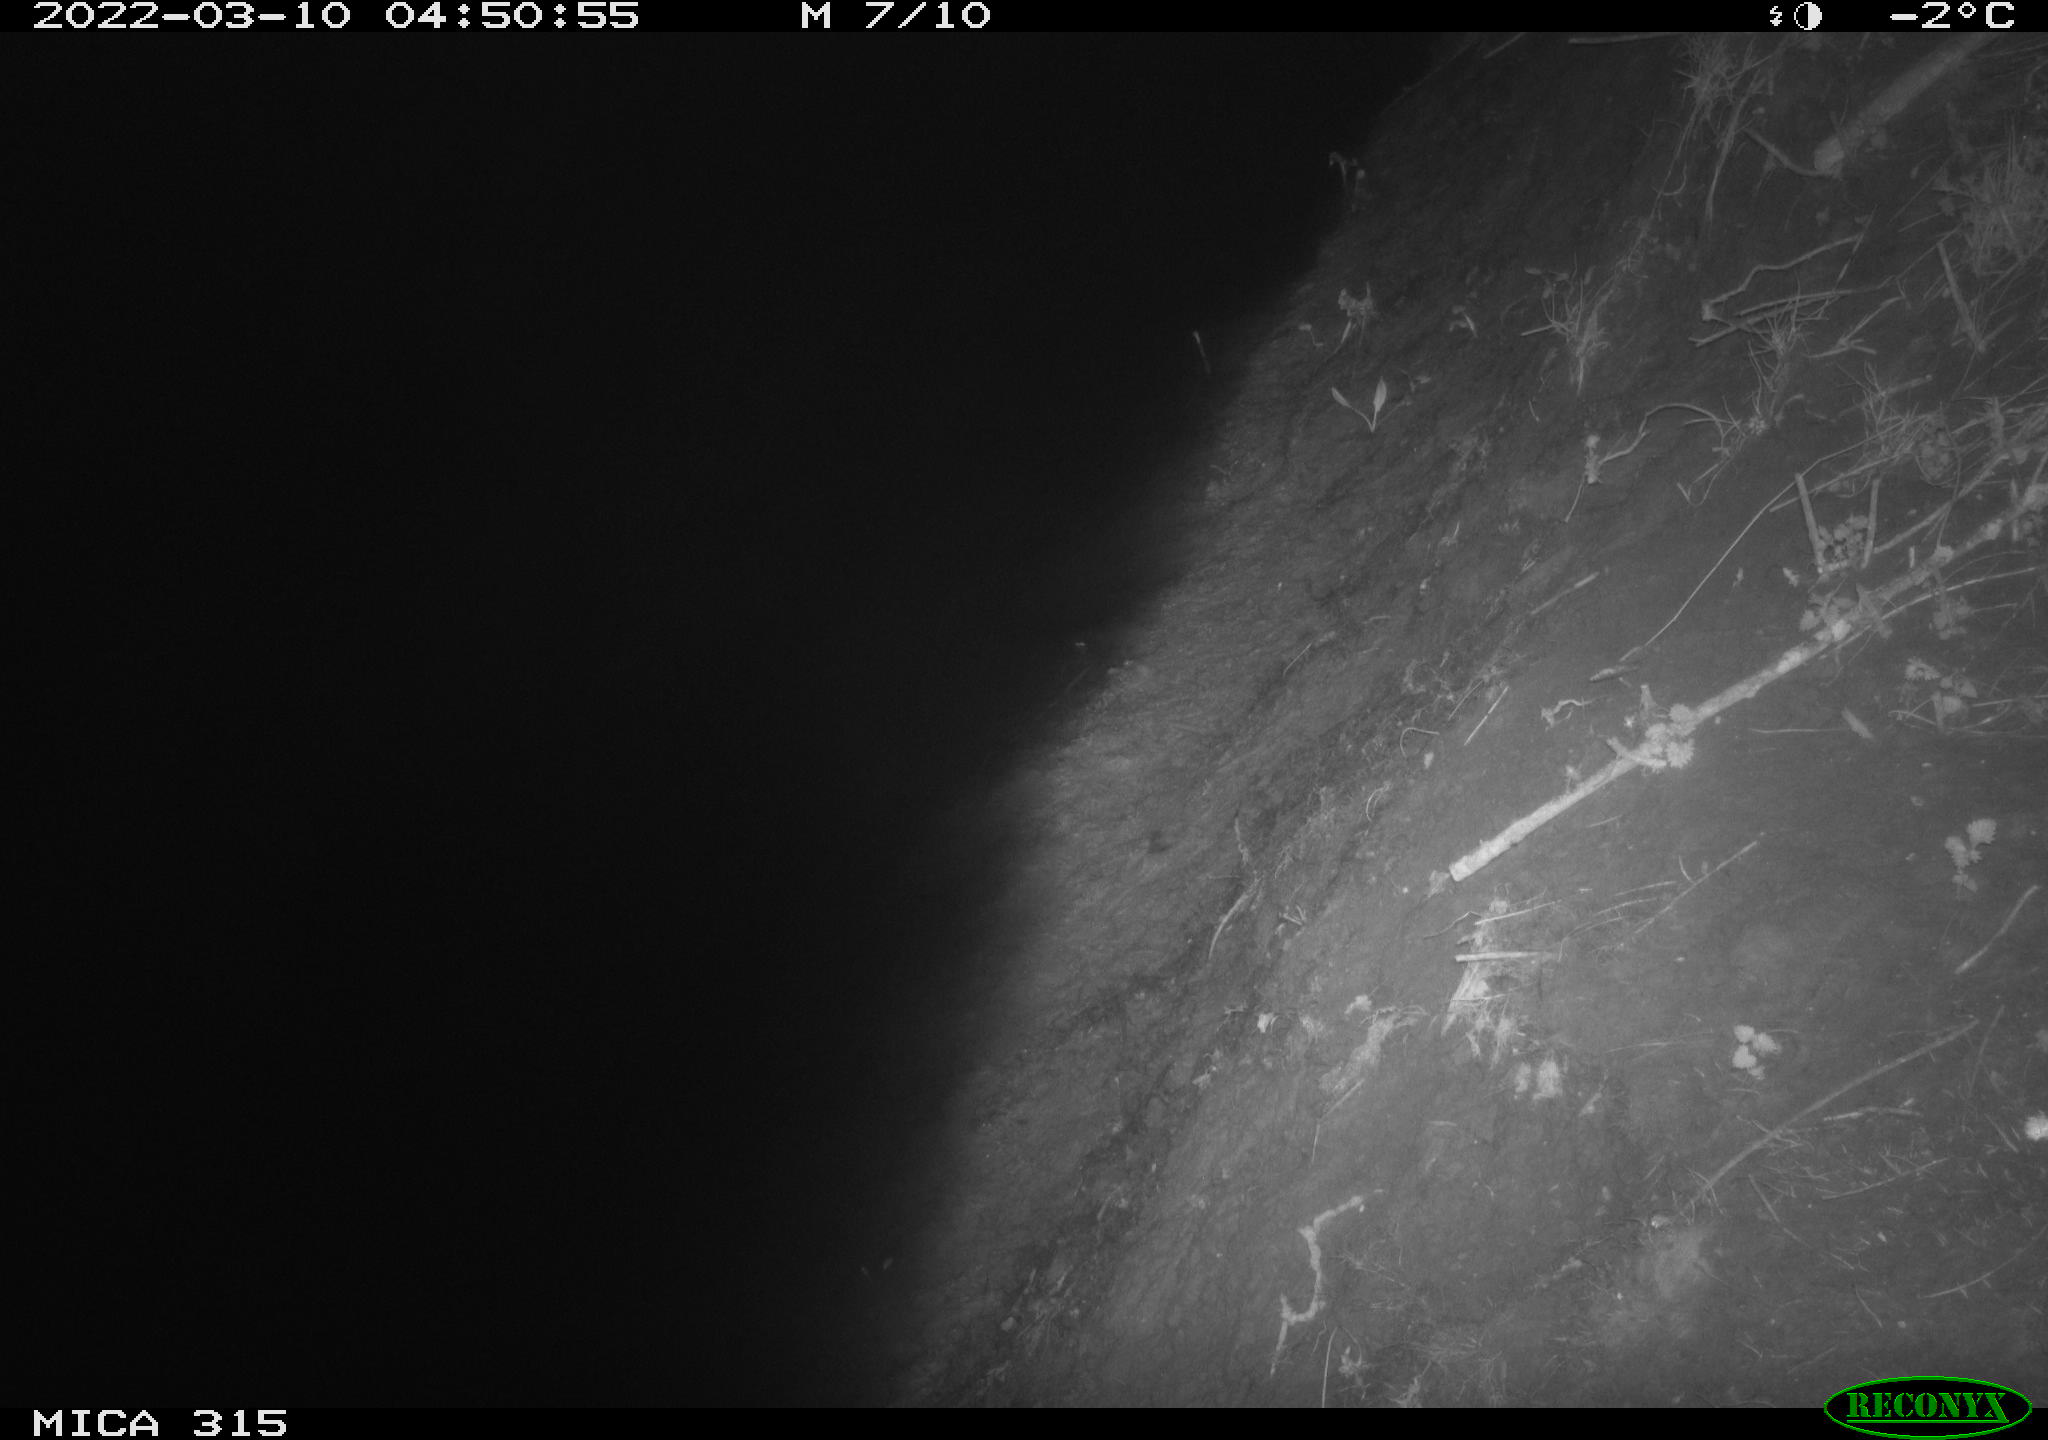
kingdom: Animalia
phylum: Chordata
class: Mammalia
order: Rodentia
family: Muridae
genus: Rattus
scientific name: Rattus norvegicus
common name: Brown rat
